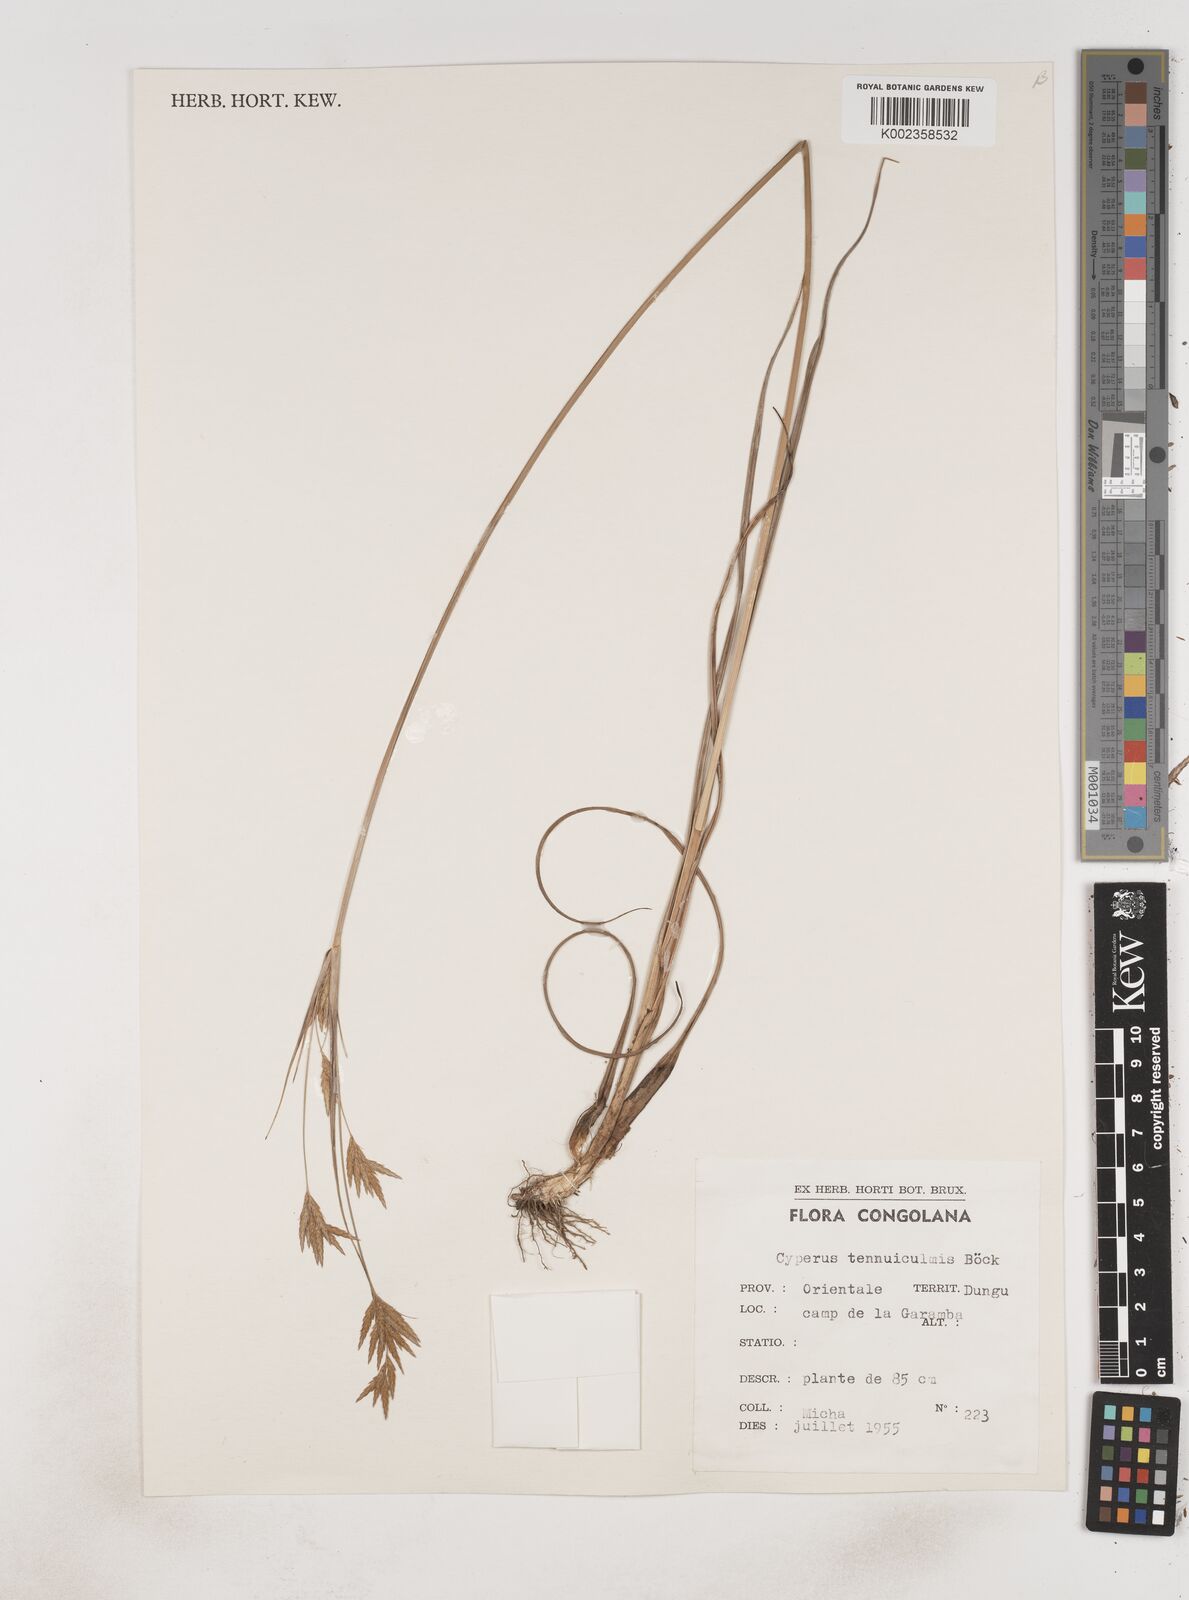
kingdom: Plantae
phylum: Tracheophyta
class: Liliopsida
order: Poales
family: Cyperaceae
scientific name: Cyperaceae
